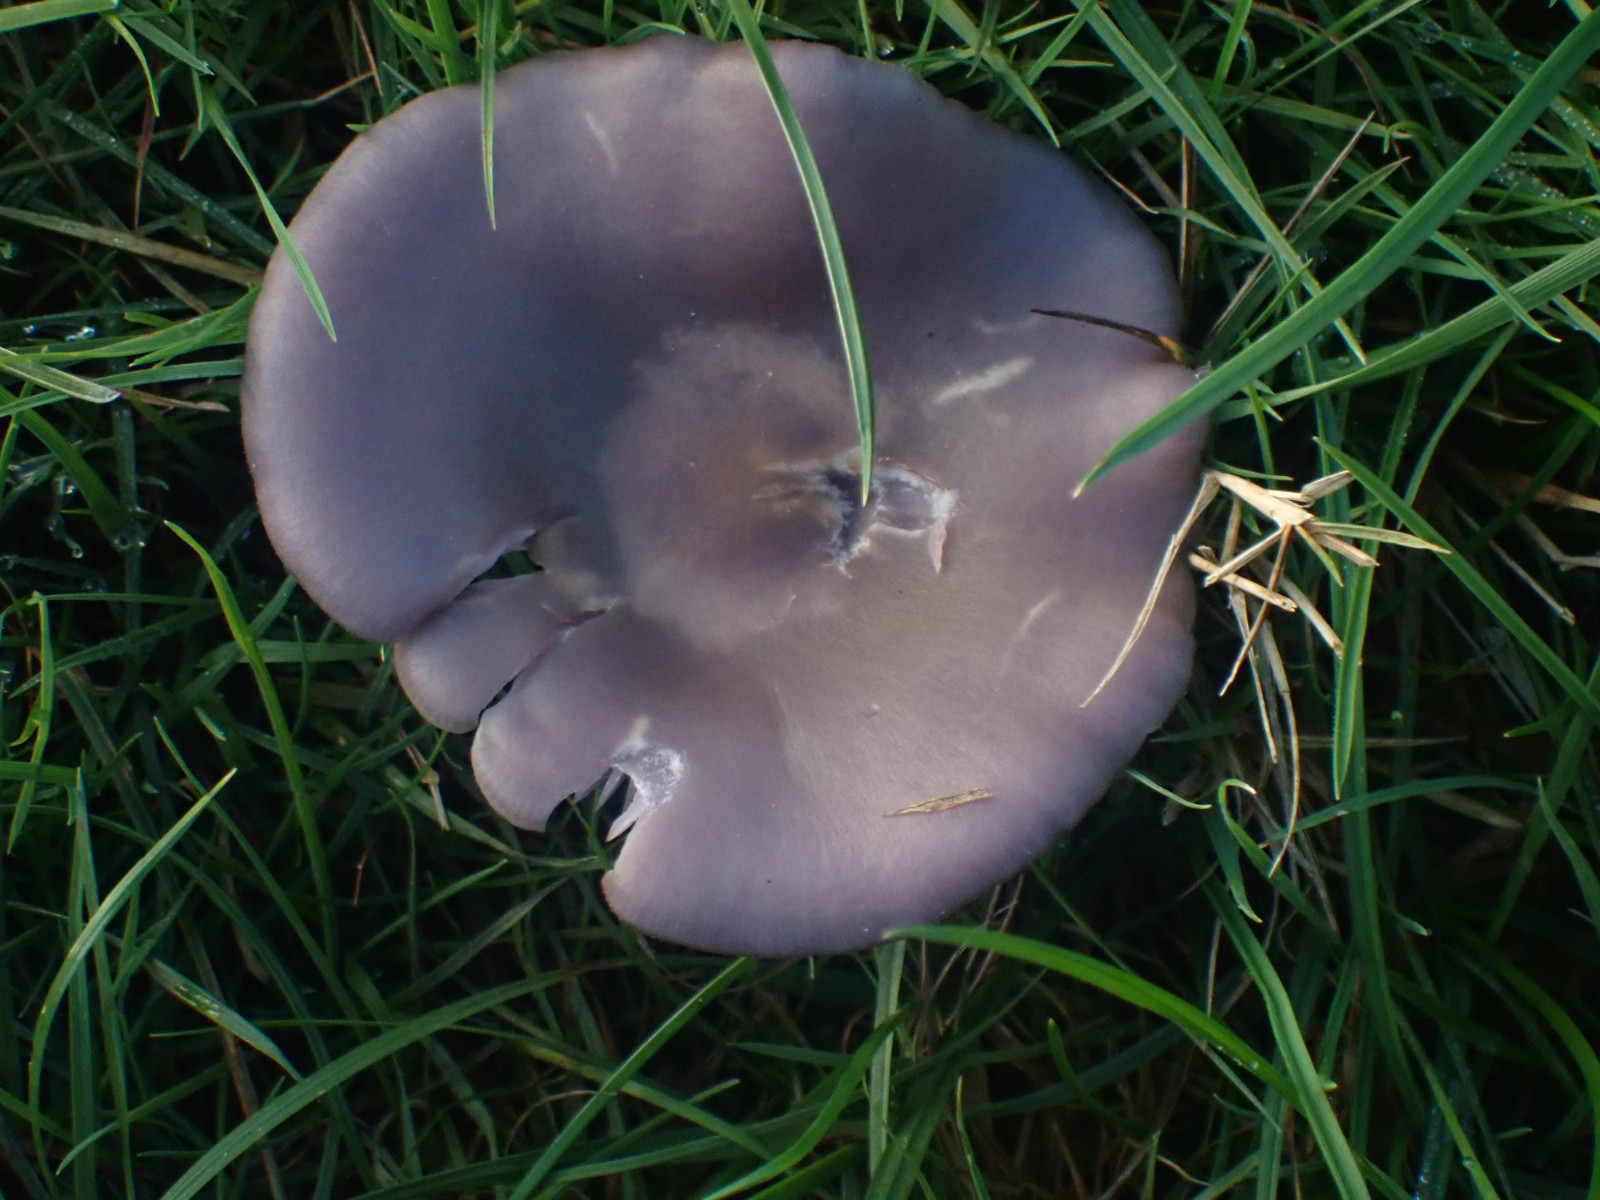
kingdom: Fungi
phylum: Basidiomycota
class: Agaricomycetes
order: Agaricales
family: Tricholomataceae
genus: Lepista
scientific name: Lepista lilacea
